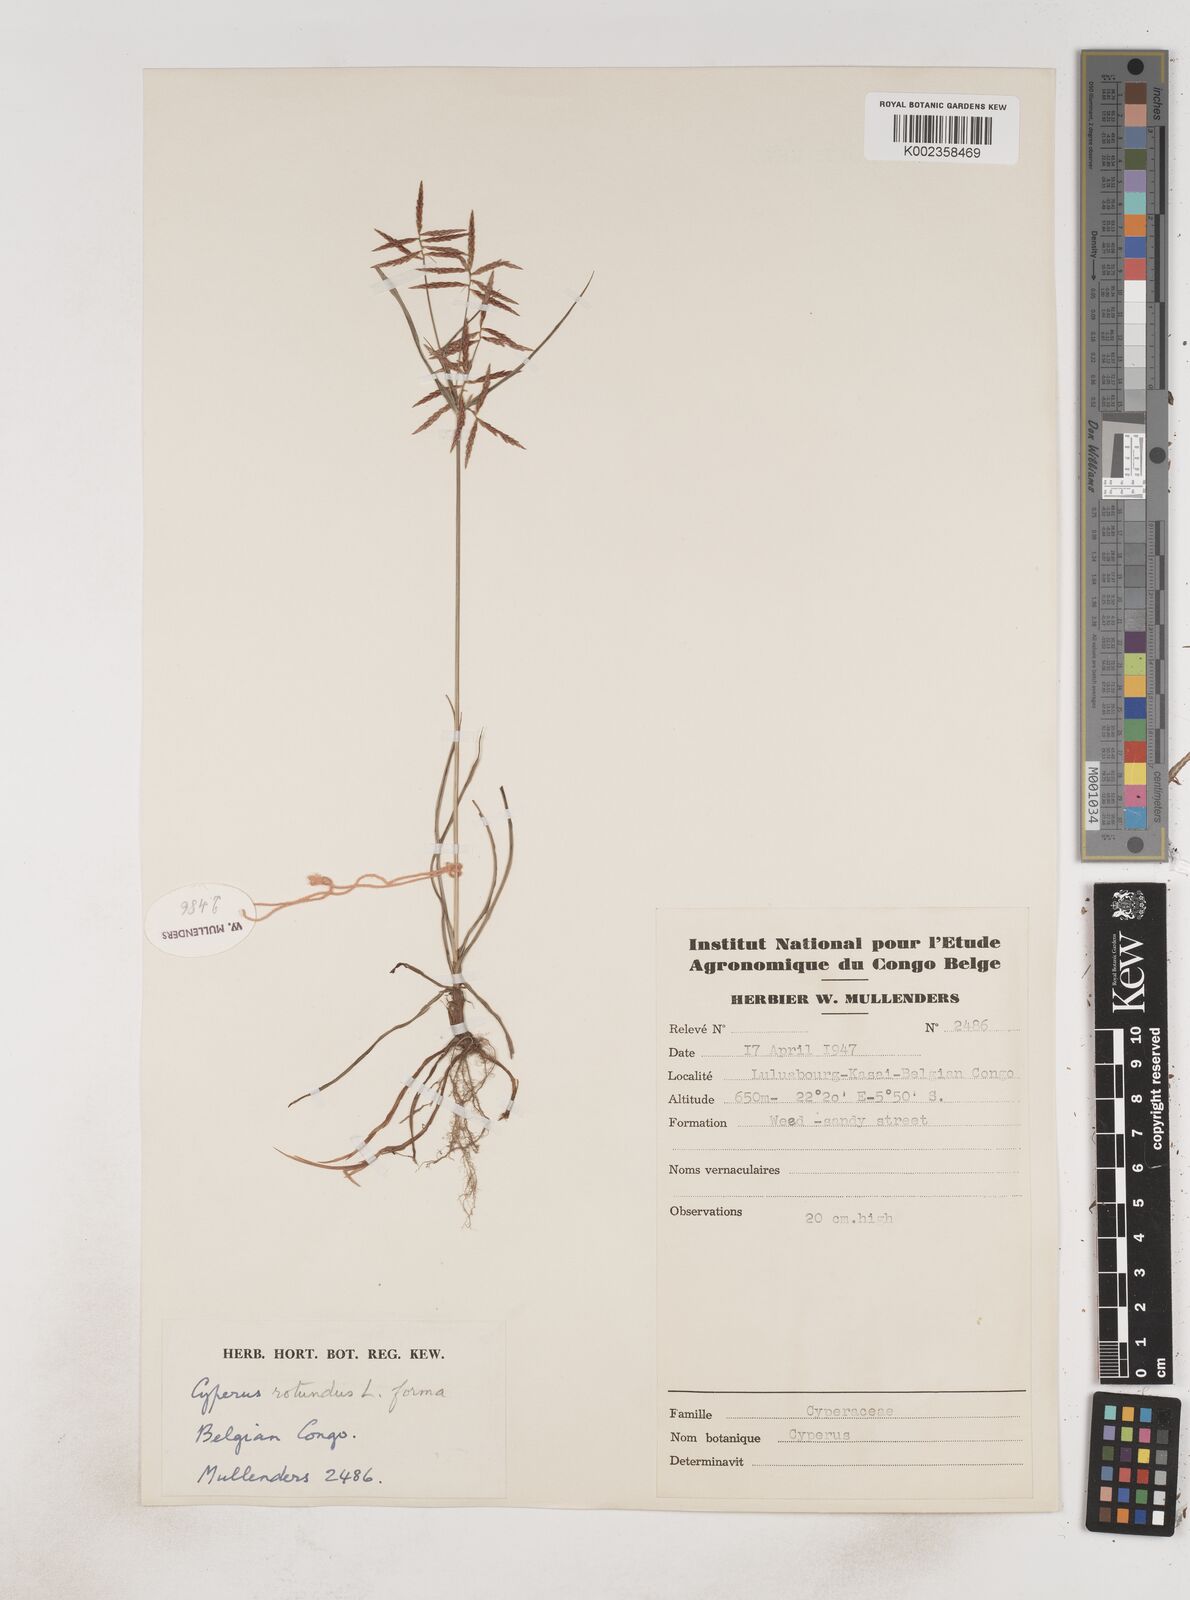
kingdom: Plantae
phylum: Tracheophyta
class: Liliopsida
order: Poales
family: Cyperaceae
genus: Cyperus
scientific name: Cyperus dilatatus
